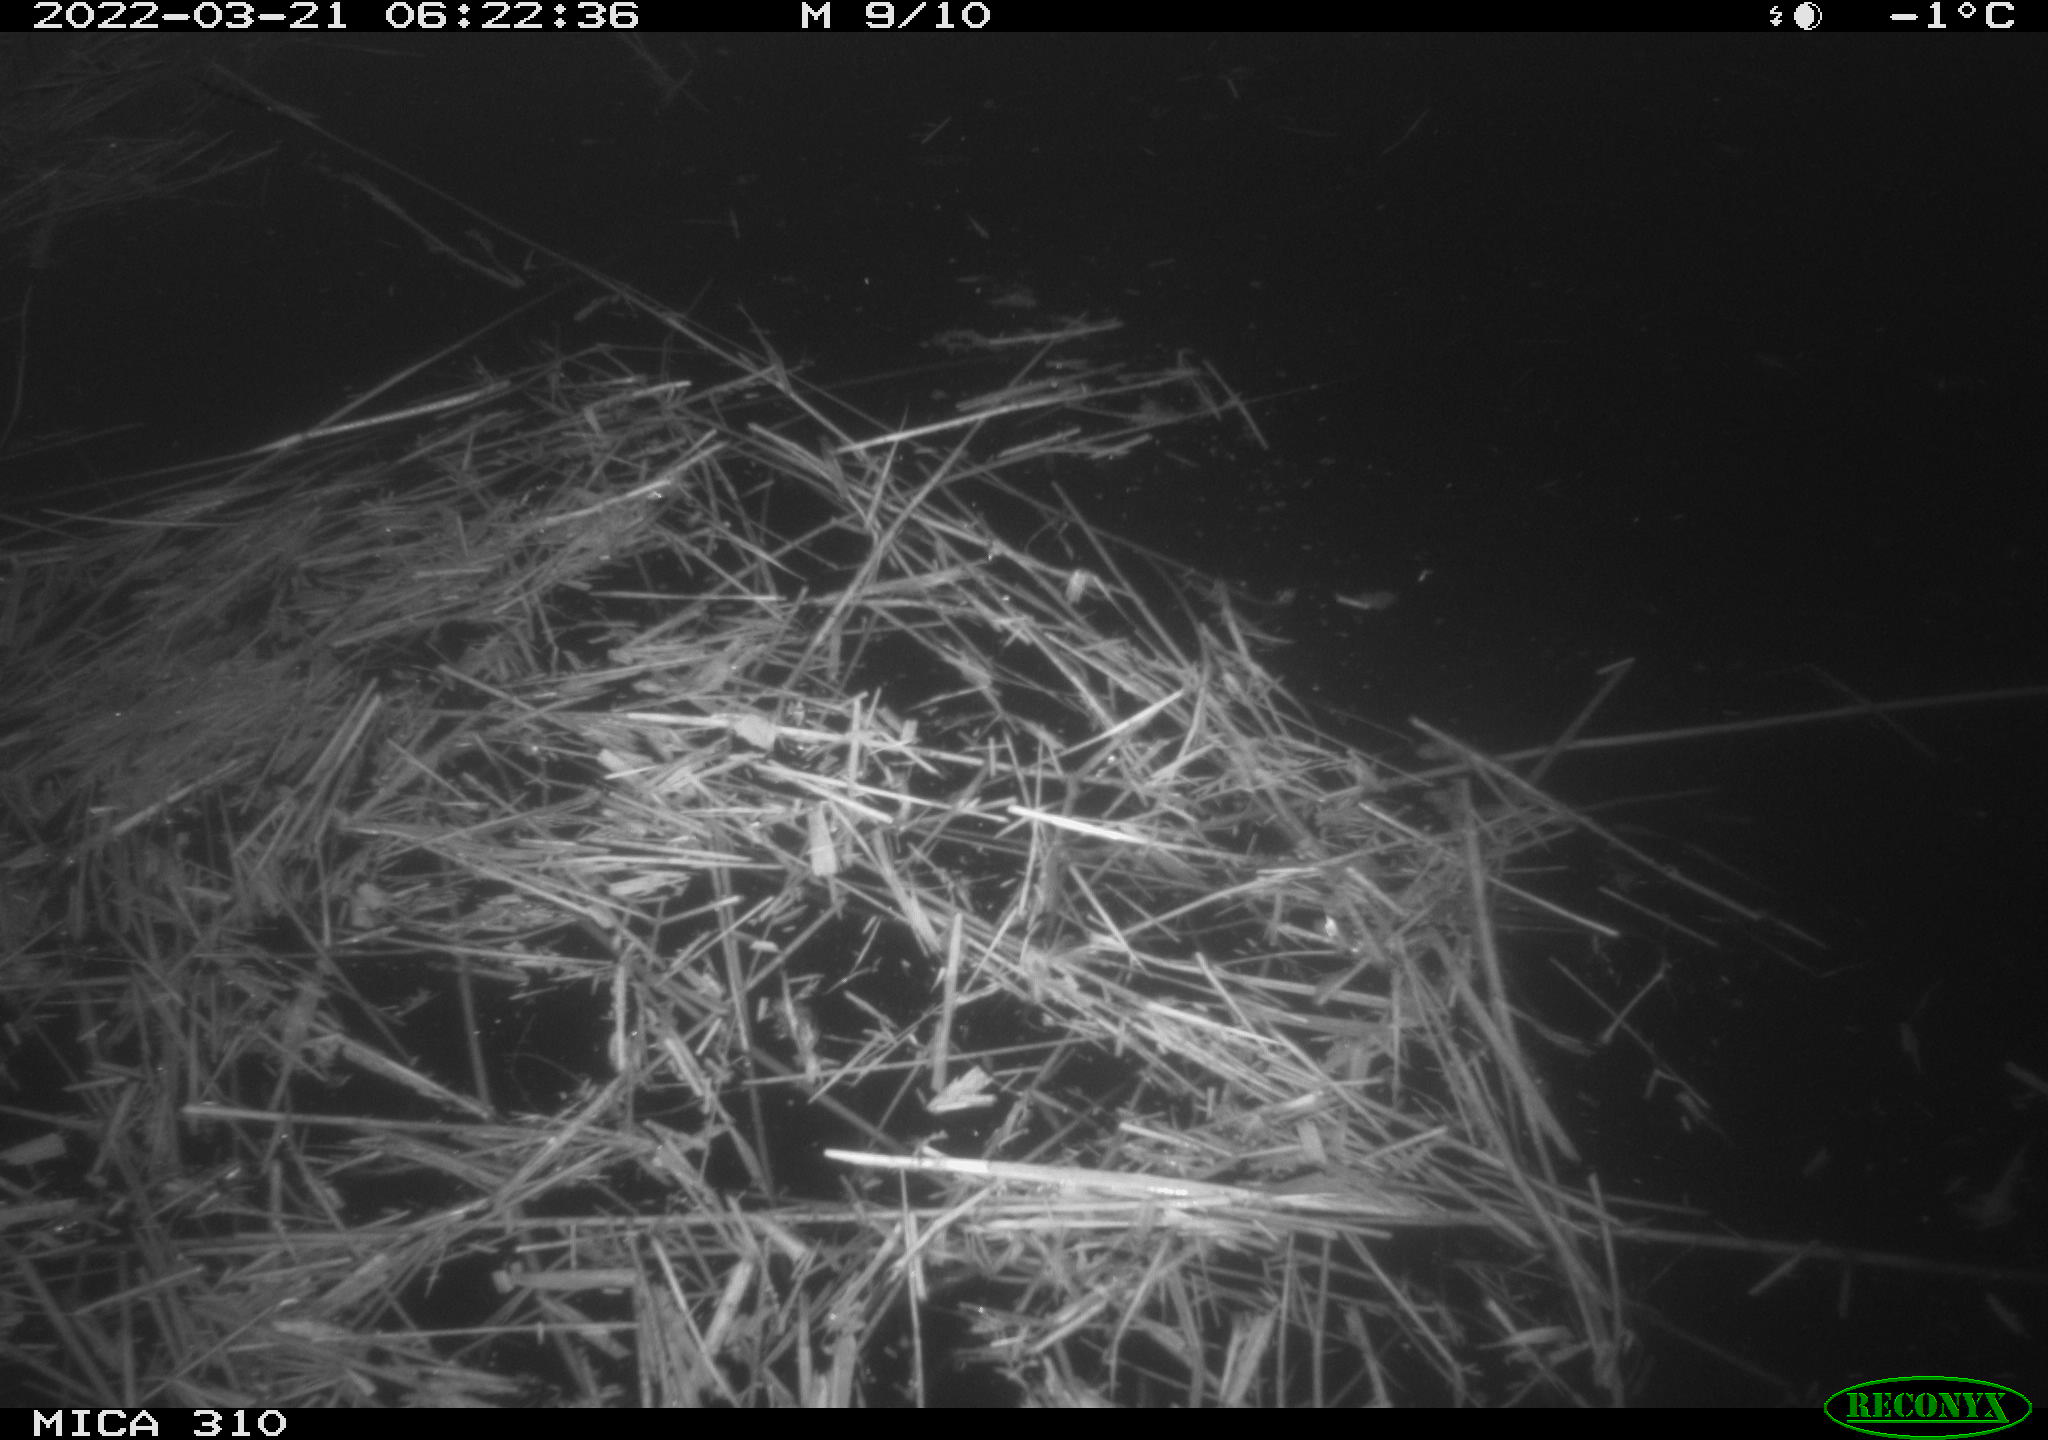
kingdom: Animalia
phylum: Chordata
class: Aves
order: Anseriformes
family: Anatidae
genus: Anas
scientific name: Anas platyrhynchos
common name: Mallard
